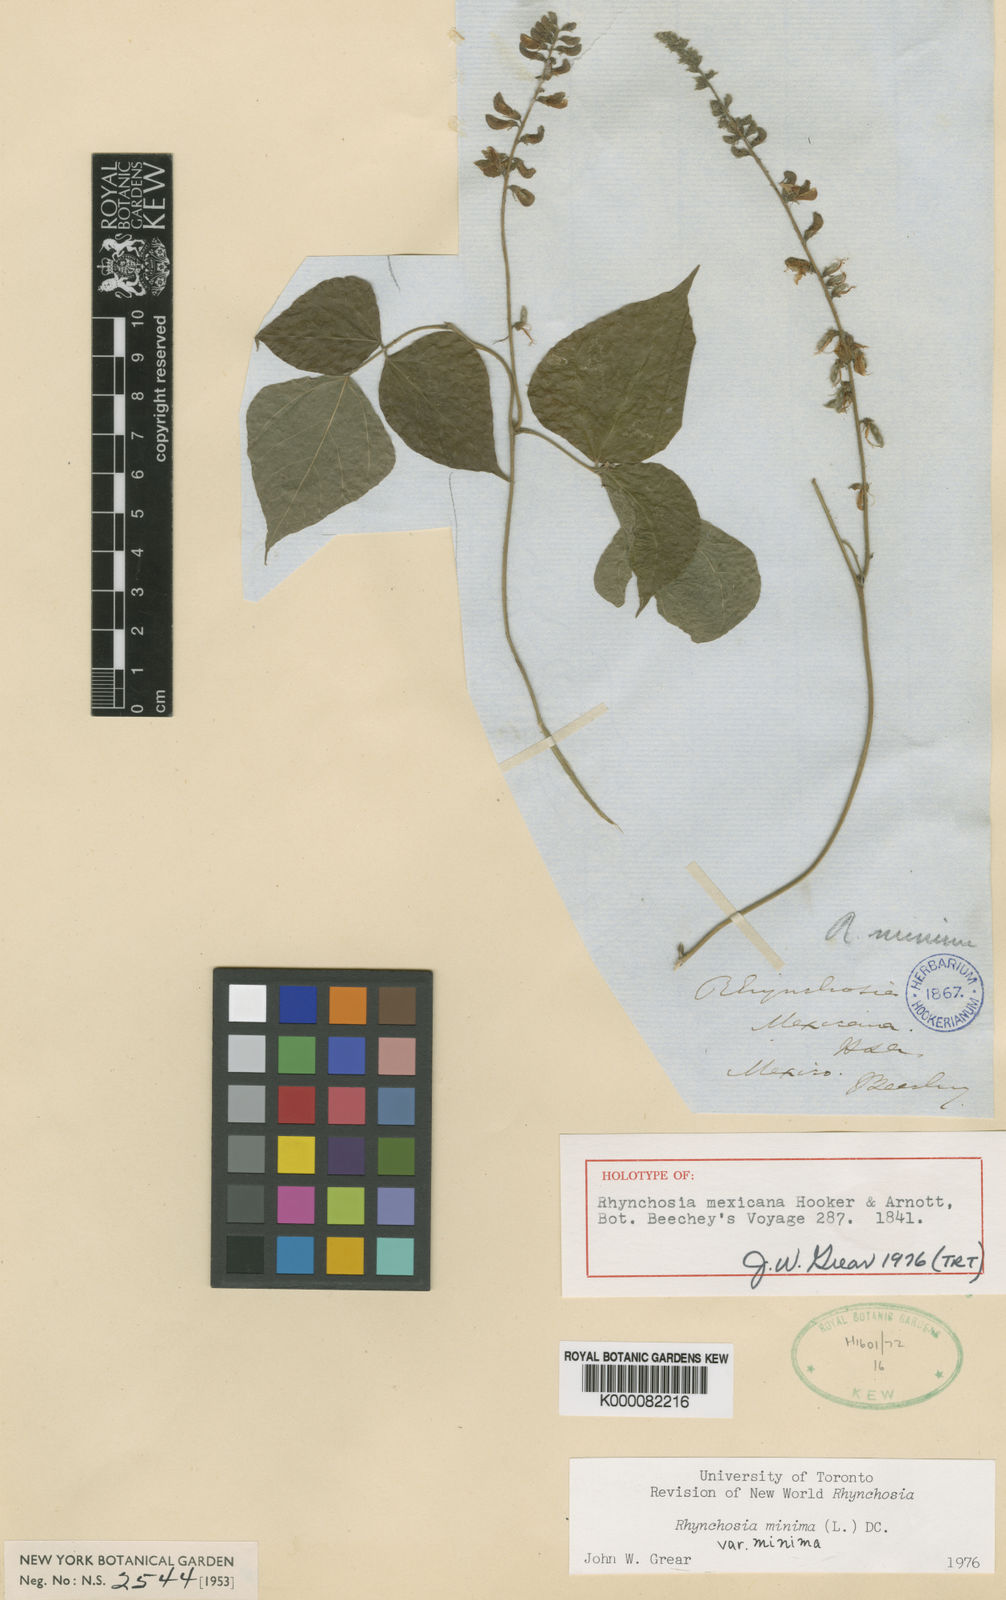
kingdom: Plantae
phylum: Tracheophyta
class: Magnoliopsida
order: Fabales
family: Fabaceae
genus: Rhynchosia
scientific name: Rhynchosia minima
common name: Least snoutbean
